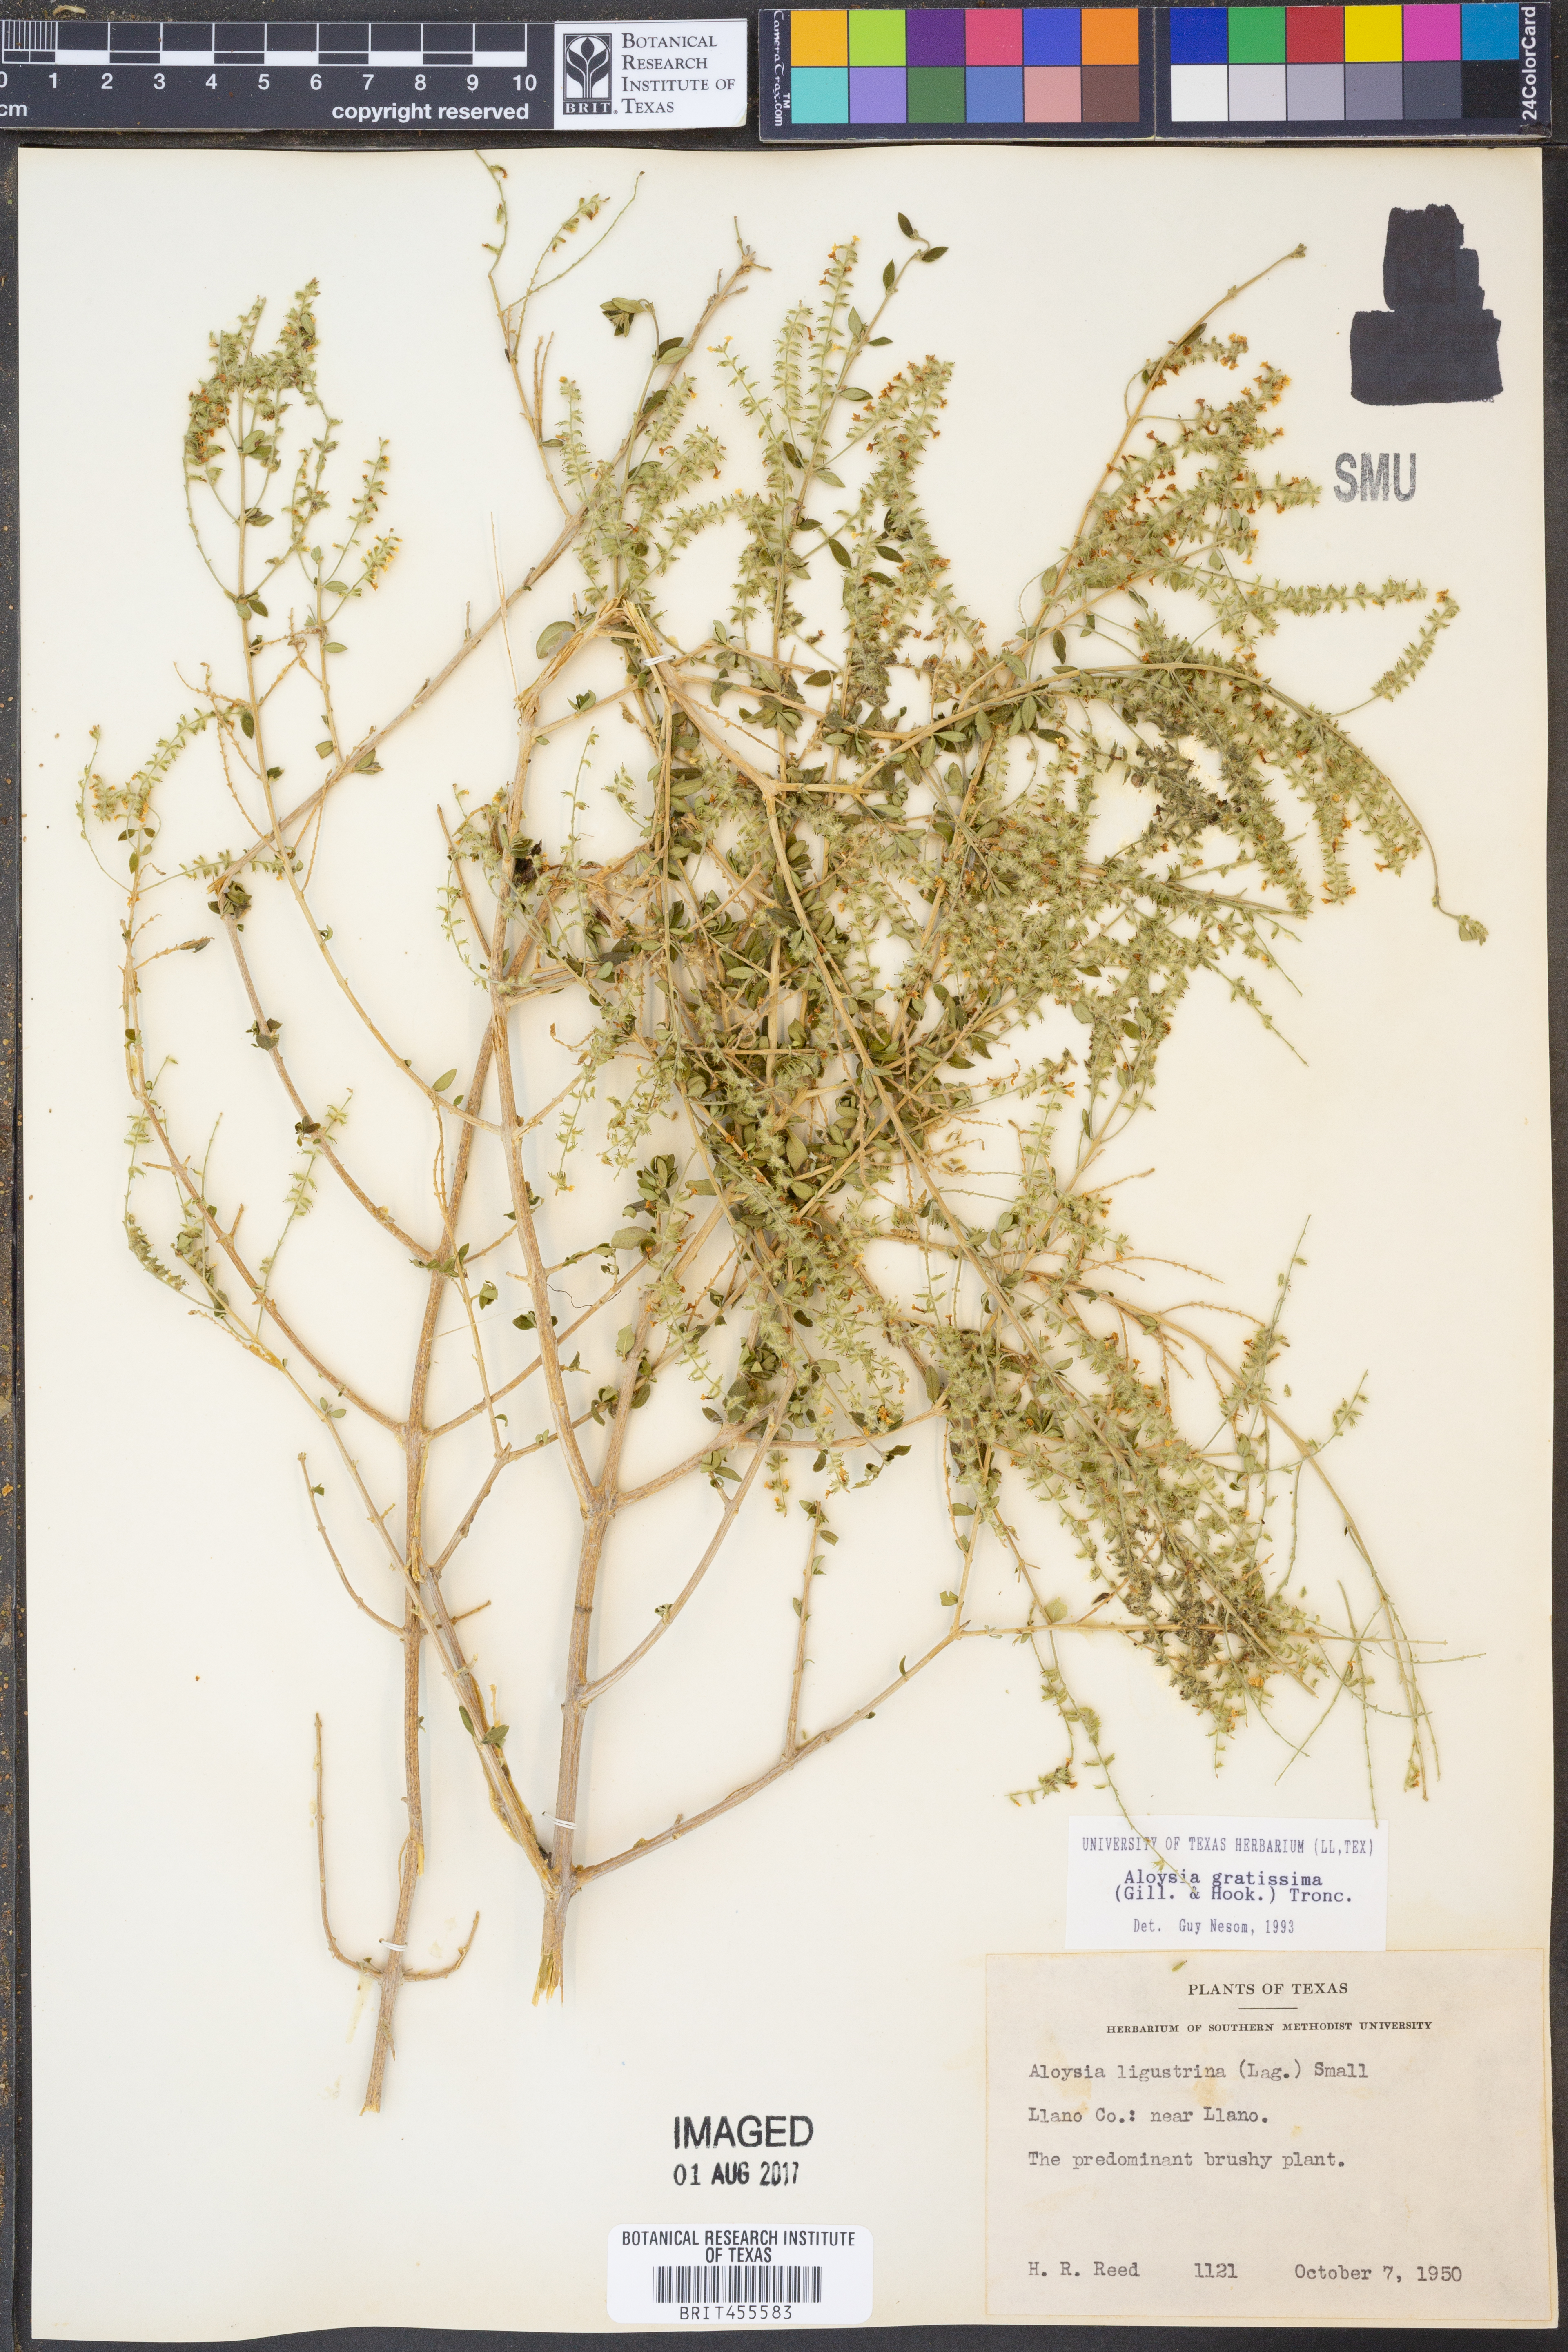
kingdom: Plantae
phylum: Tracheophyta
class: Magnoliopsida
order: Lamiales
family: Verbenaceae
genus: Aloysia
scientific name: Aloysia gratissima
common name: Common bee-brush
